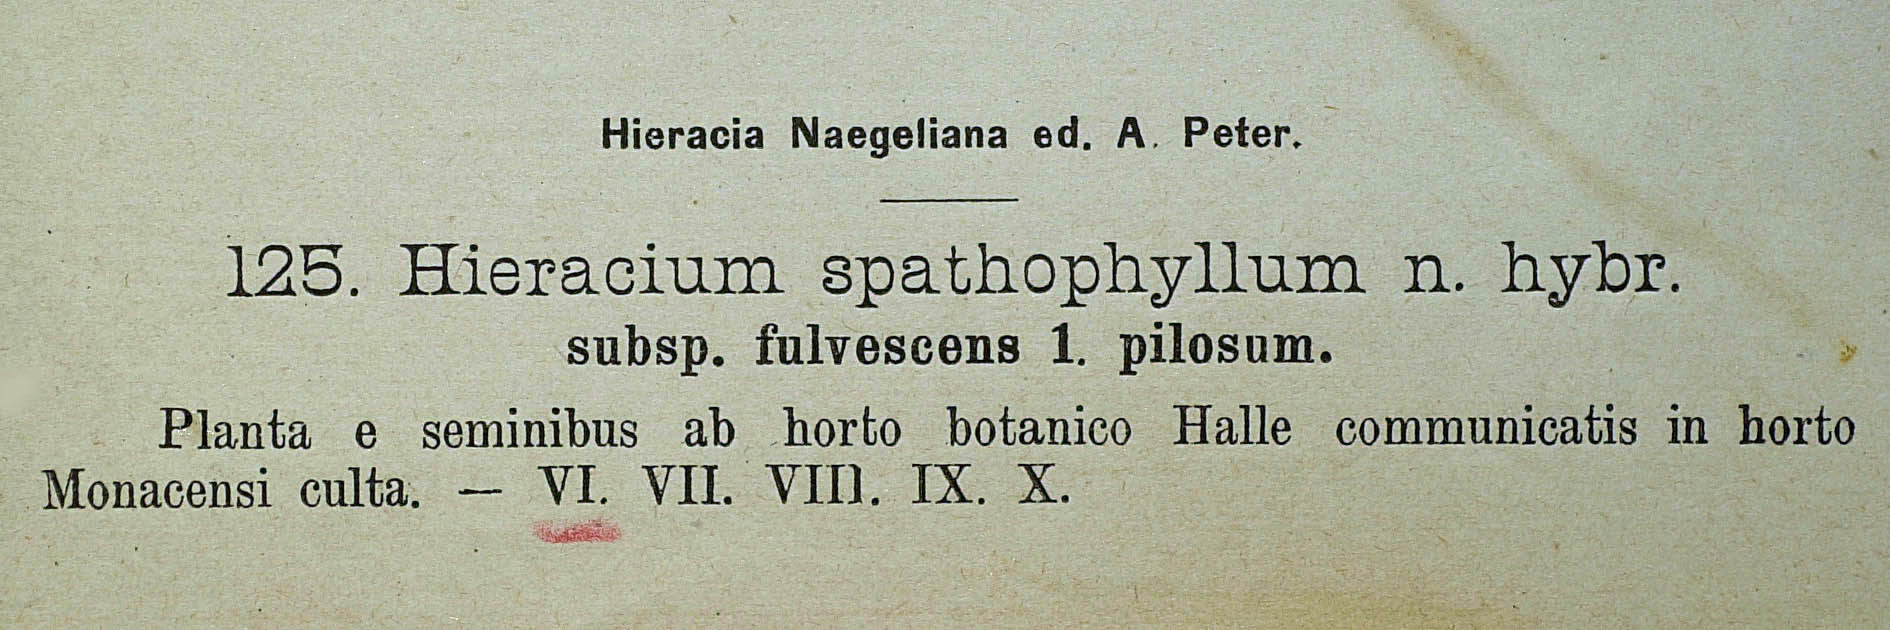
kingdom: Plantae
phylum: Tracheophyta
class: Magnoliopsida
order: Asterales
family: Asteraceae
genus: Pilosella
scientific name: Pilosella longiscapa
